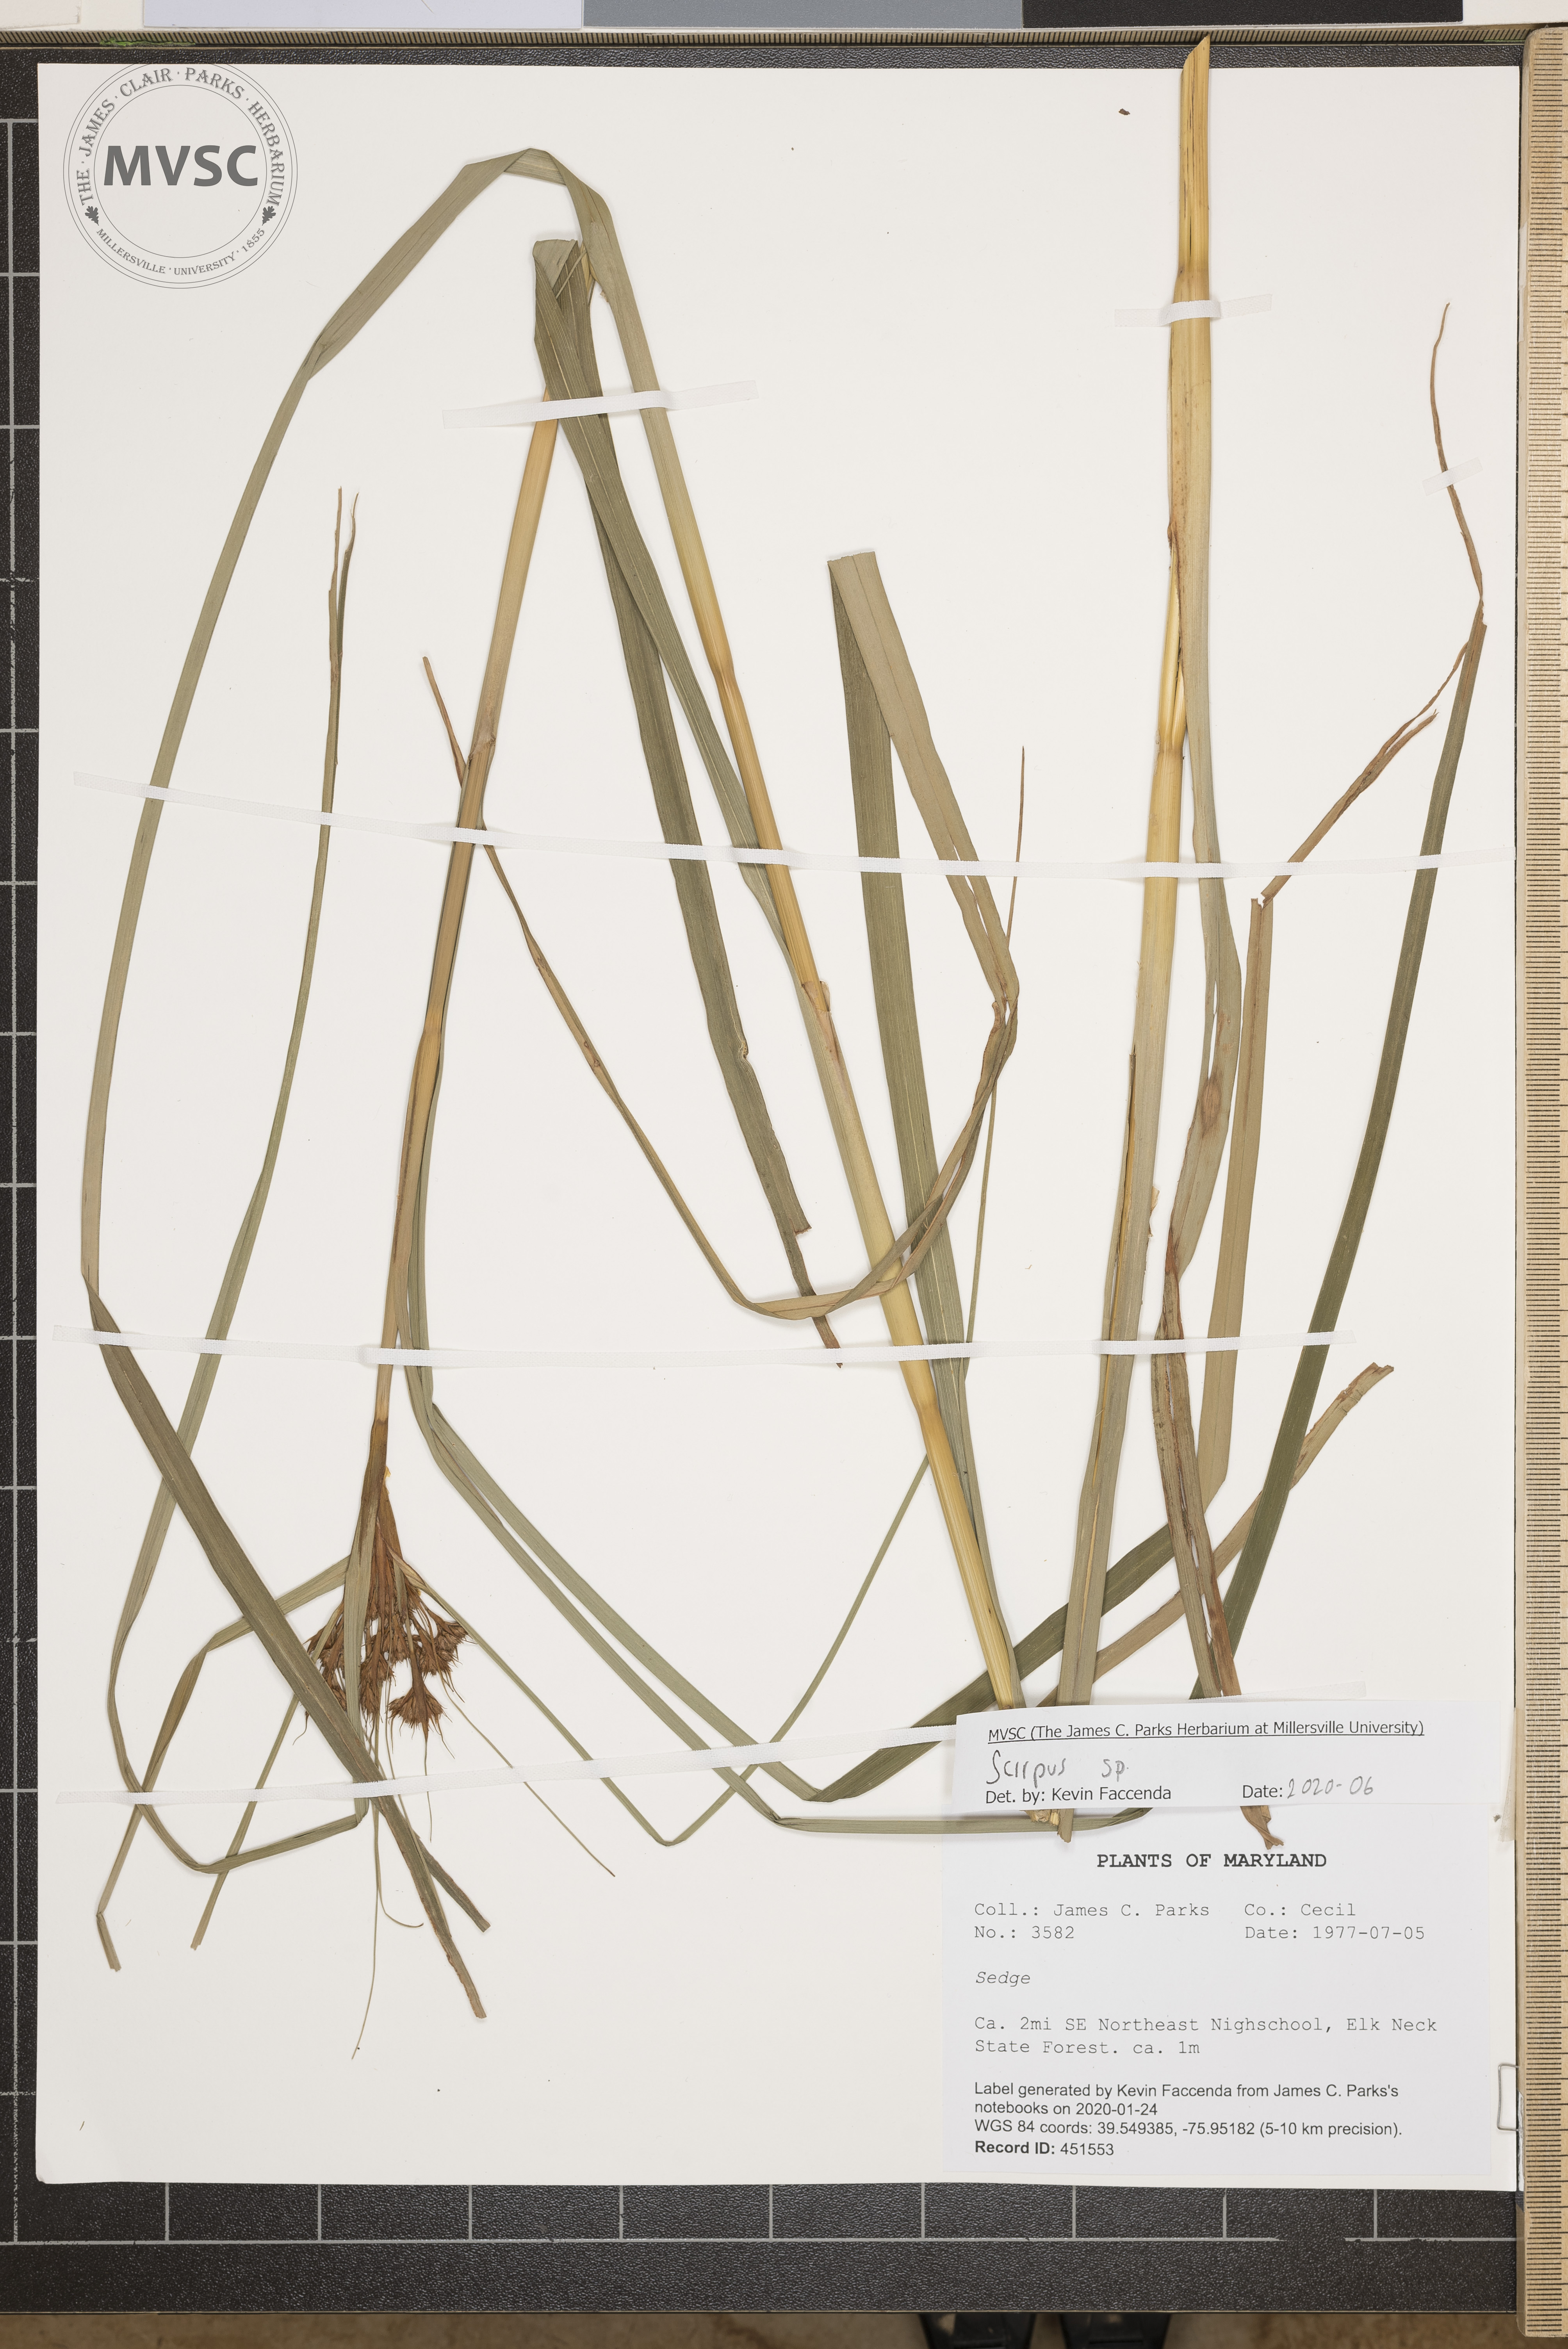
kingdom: Plantae
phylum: Tracheophyta
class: Liliopsida
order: Poales
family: Cyperaceae
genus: Scirpus
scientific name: Scirpus
